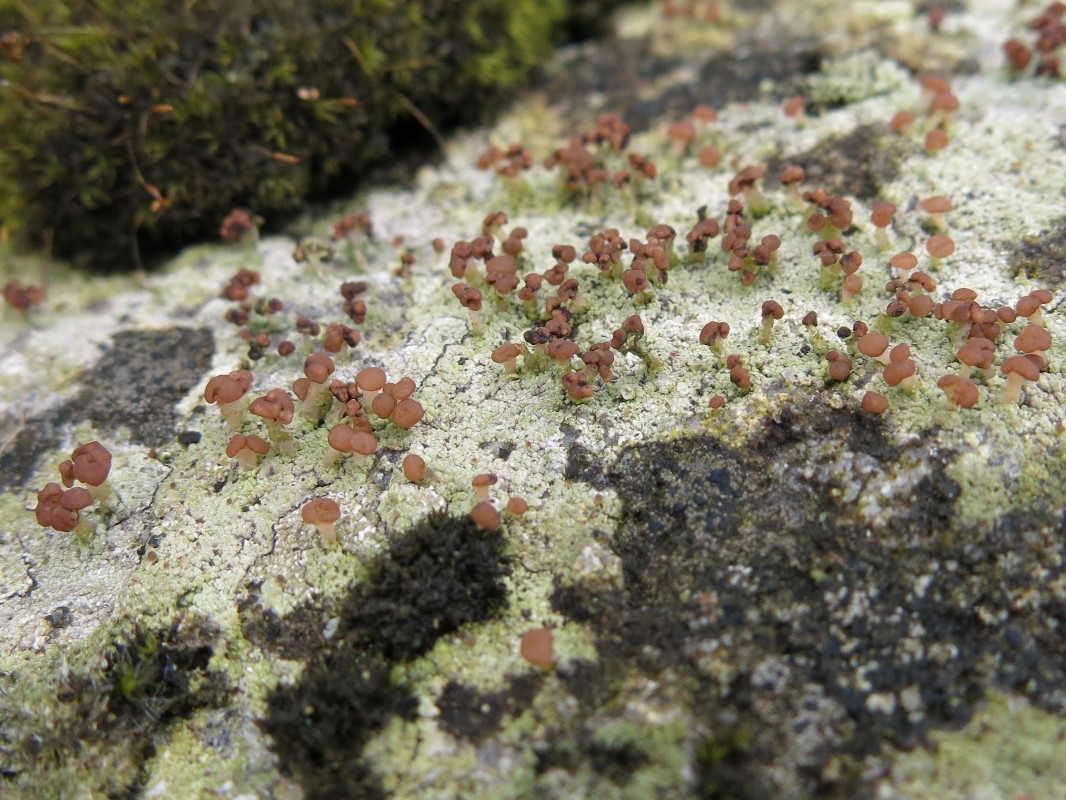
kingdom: Fungi
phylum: Ascomycota
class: Lecanoromycetes
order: Baeomycetales
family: Baeomycetaceae
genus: Baeomyces
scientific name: Baeomyces rufus
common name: rødbrun svampelav
